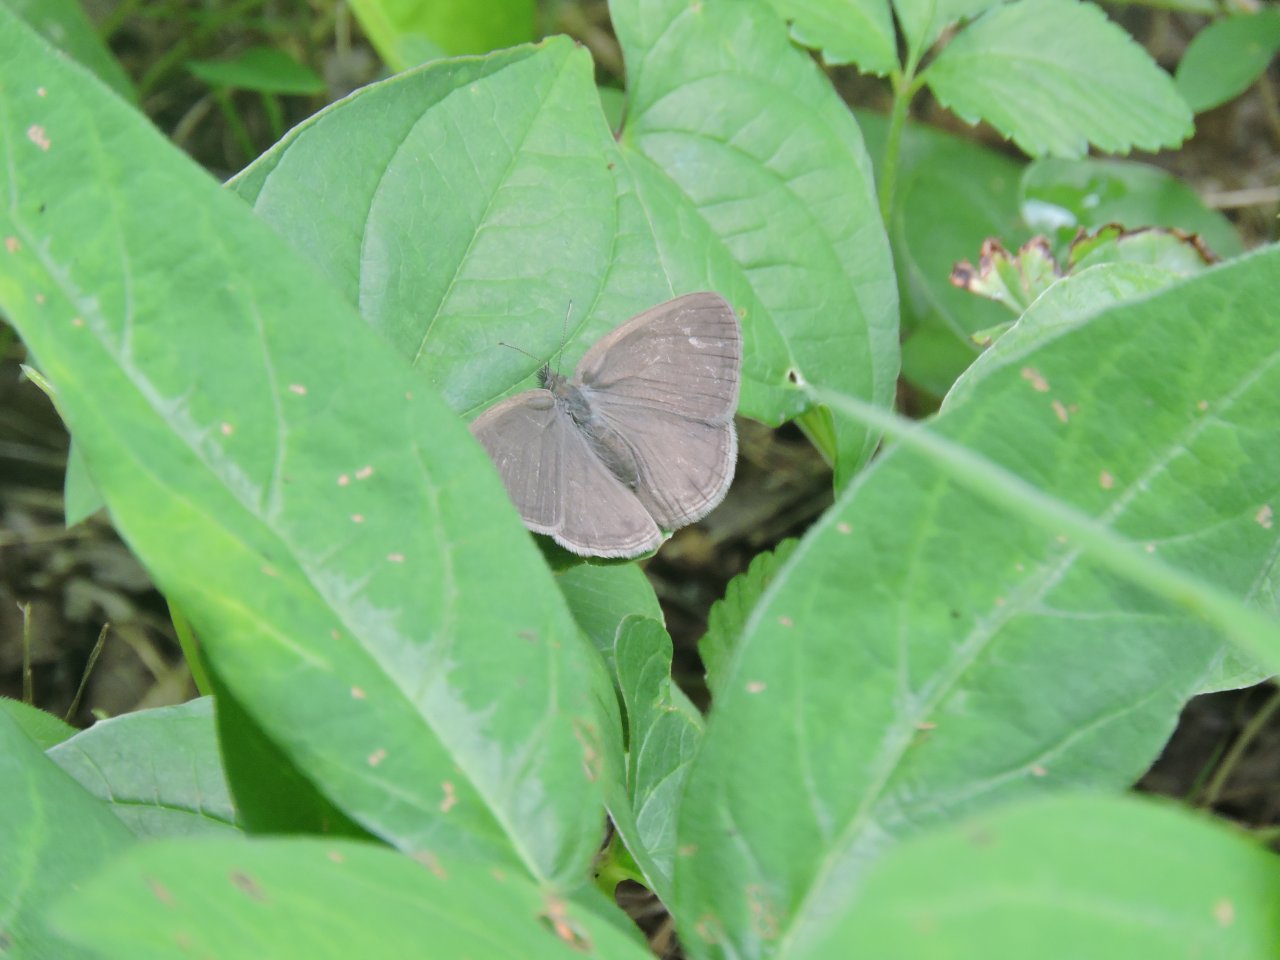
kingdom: Animalia
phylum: Arthropoda
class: Insecta
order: Lepidoptera
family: Nymphalidae
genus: Hermeuptychia
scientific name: Hermeuptychia hermes
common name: Carolina Satyr
